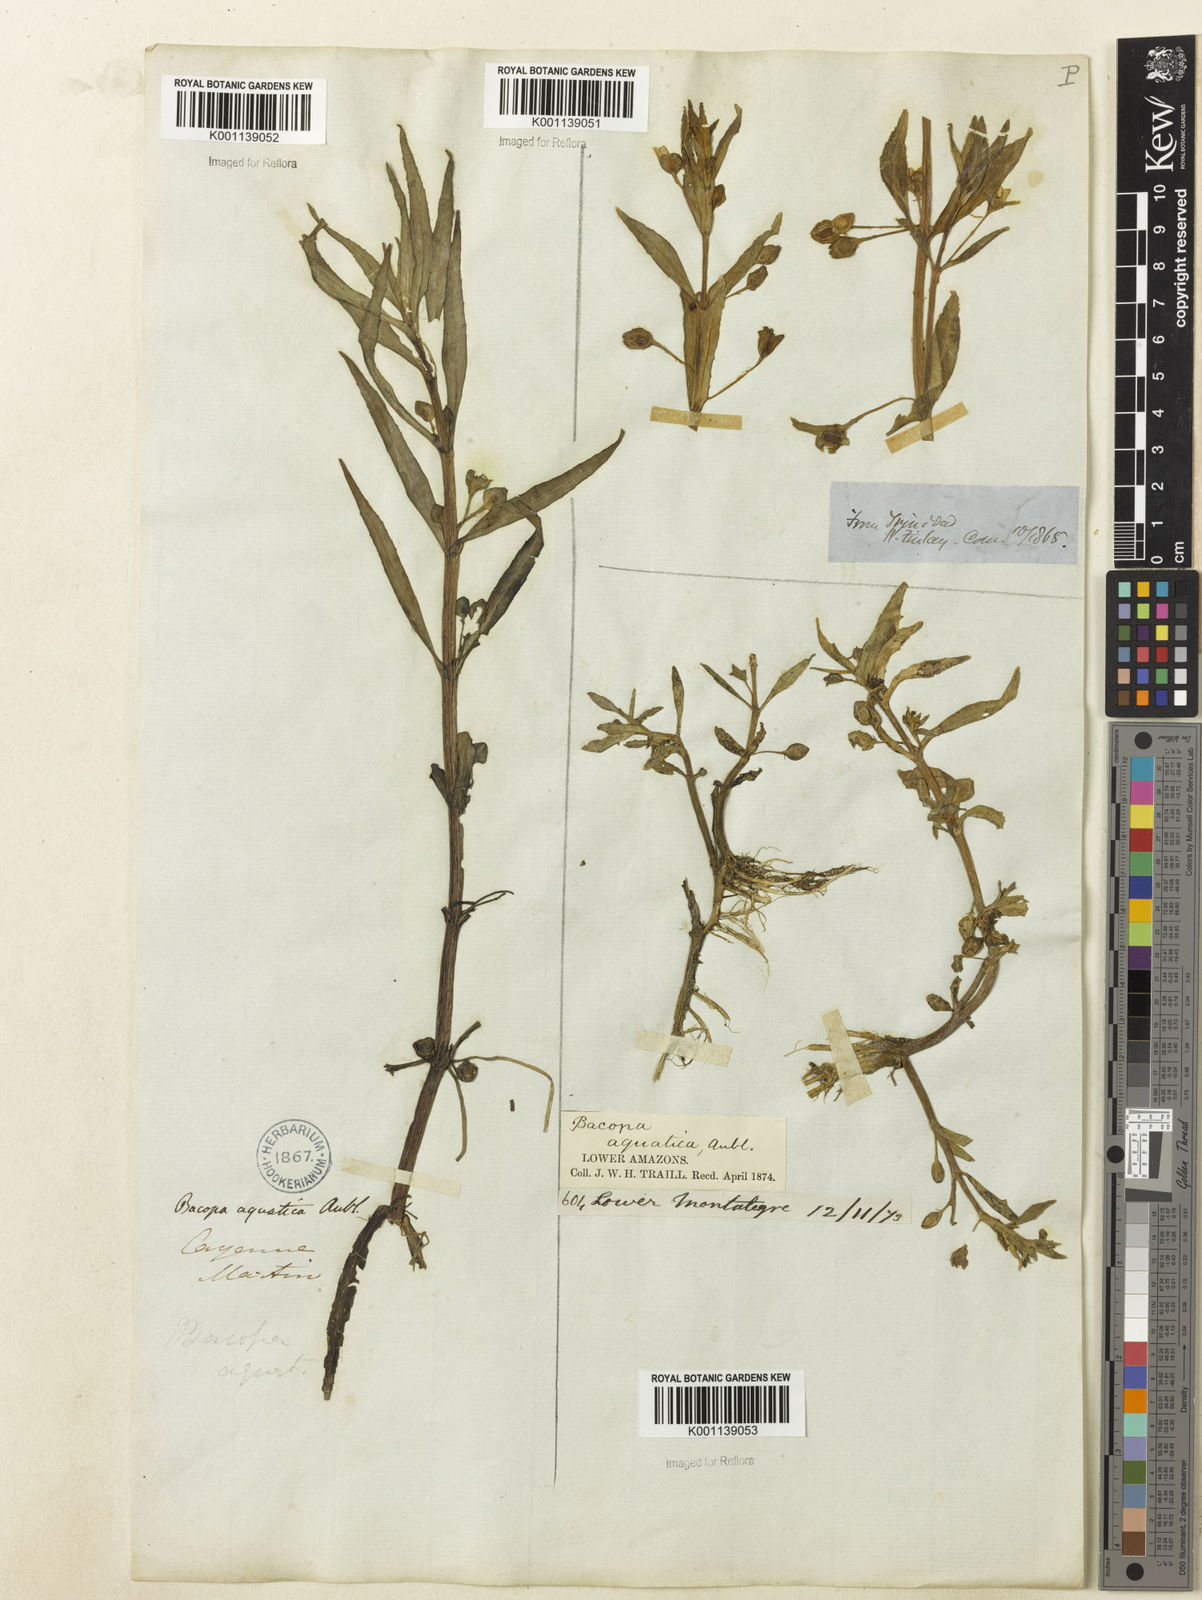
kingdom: Plantae
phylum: Tracheophyta
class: Magnoliopsida
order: Lamiales
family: Plantaginaceae
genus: Bacopa
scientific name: Bacopa aquatica
